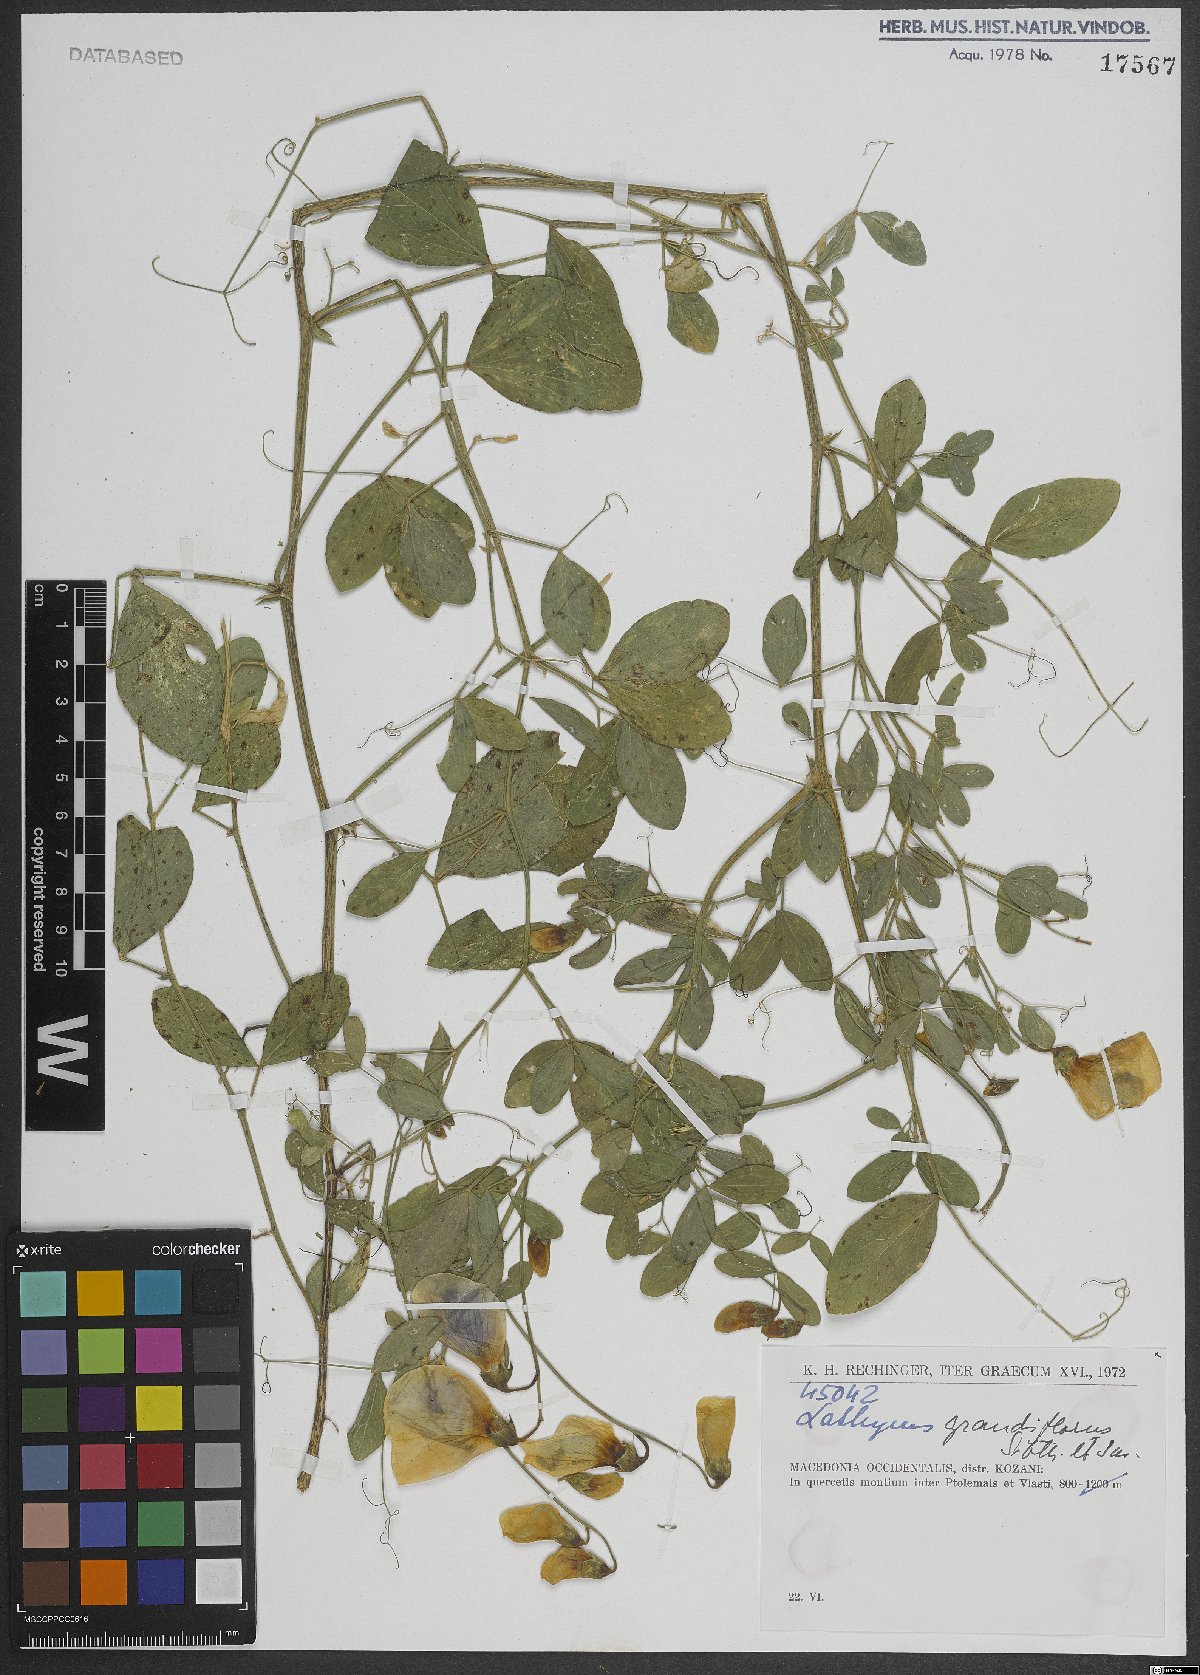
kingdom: Plantae
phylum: Tracheophyta
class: Magnoliopsida
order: Fabales
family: Fabaceae
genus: Lathyrus
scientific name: Lathyrus grandiflorus
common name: Two-flowered everlasting-pea
